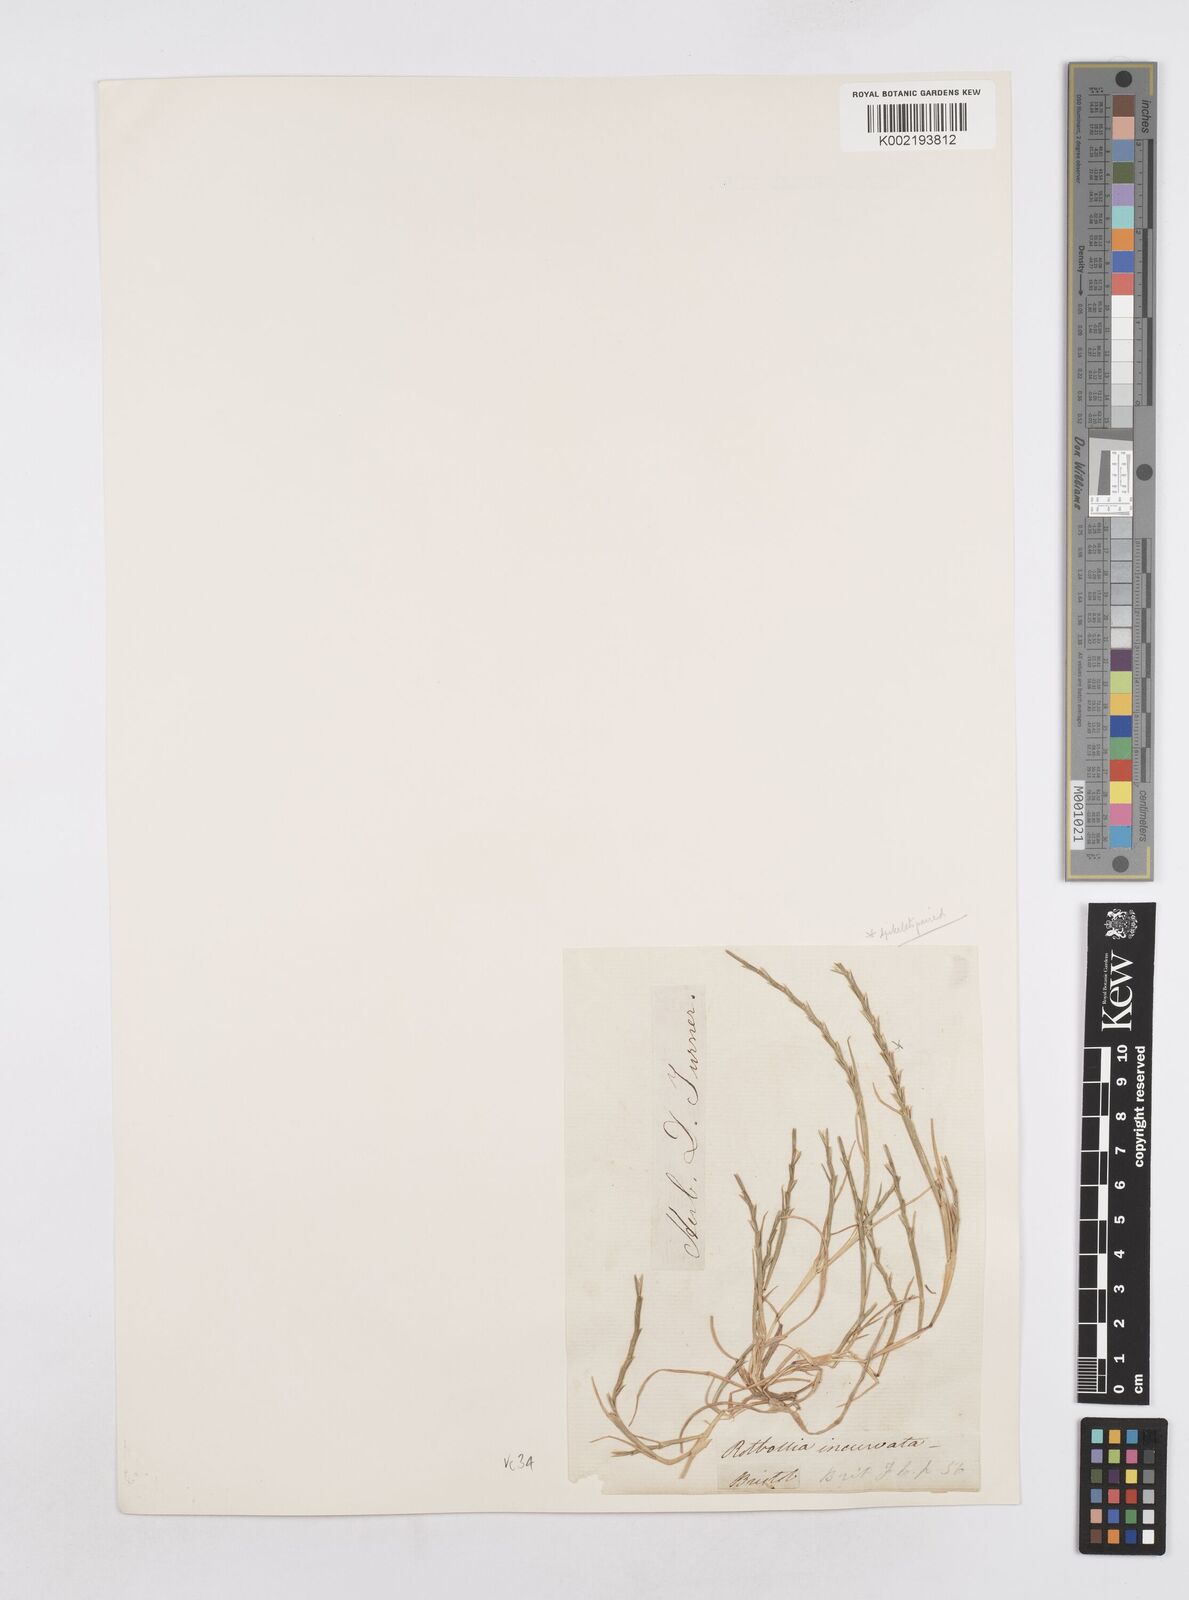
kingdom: Plantae
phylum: Tracheophyta
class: Liliopsida
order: Poales
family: Poaceae
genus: Parapholis
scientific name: Parapholis strigosa
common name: Hard-grass
